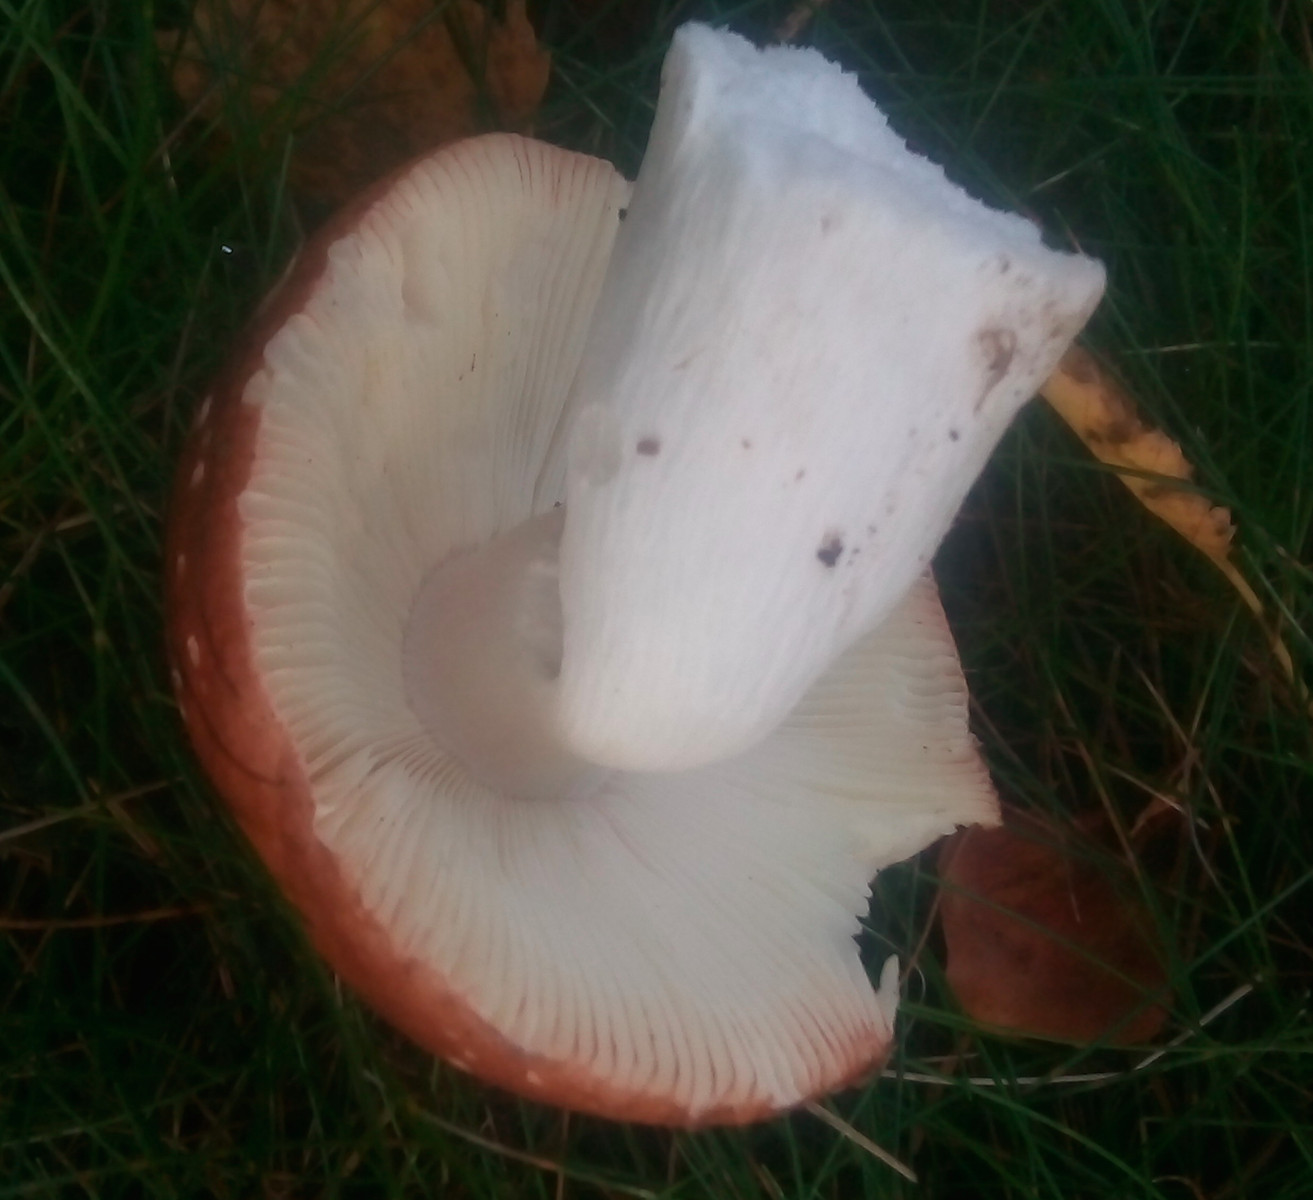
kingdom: Fungi
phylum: Basidiomycota
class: Agaricomycetes
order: Russulales
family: Russulaceae
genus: Russula
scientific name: Russula velenovskyi
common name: orangerød skørhat
